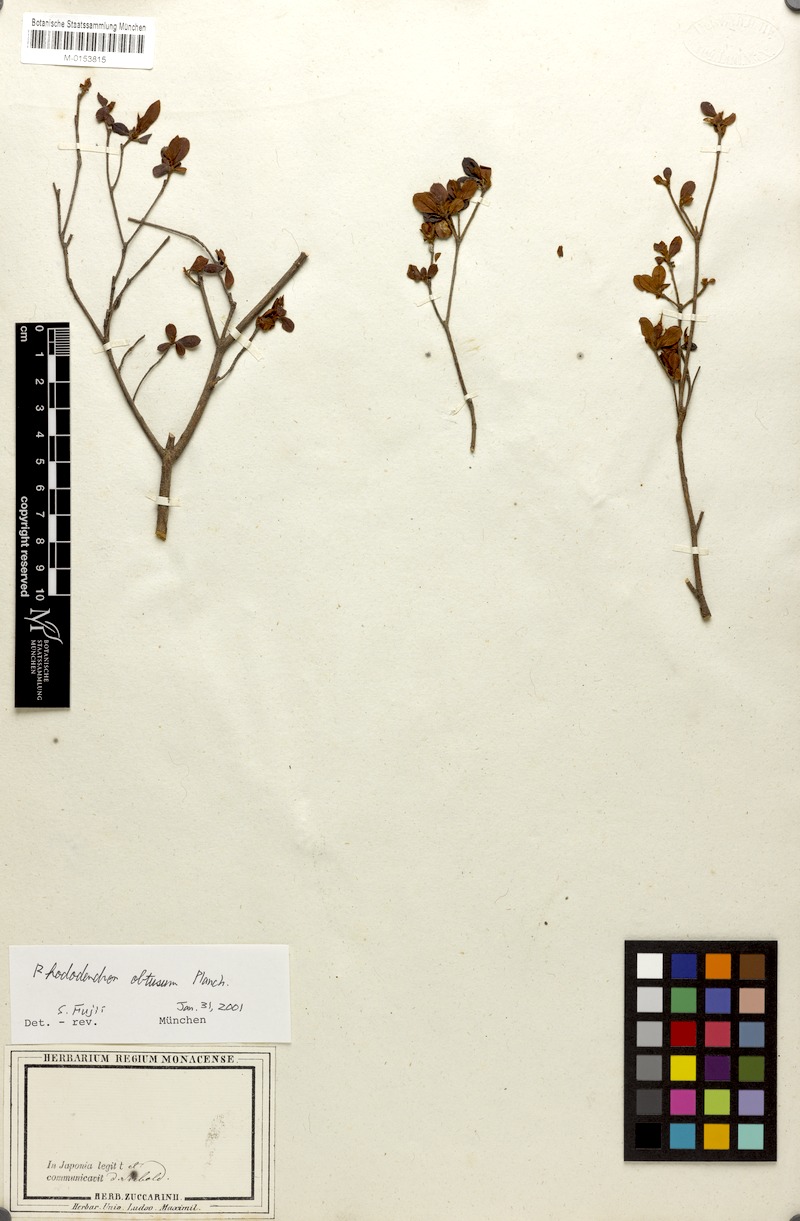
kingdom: Plantae
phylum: Tracheophyta
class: Magnoliopsida
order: Ericales
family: Ericaceae
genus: Rhododendron
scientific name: Rhododendron indicum
